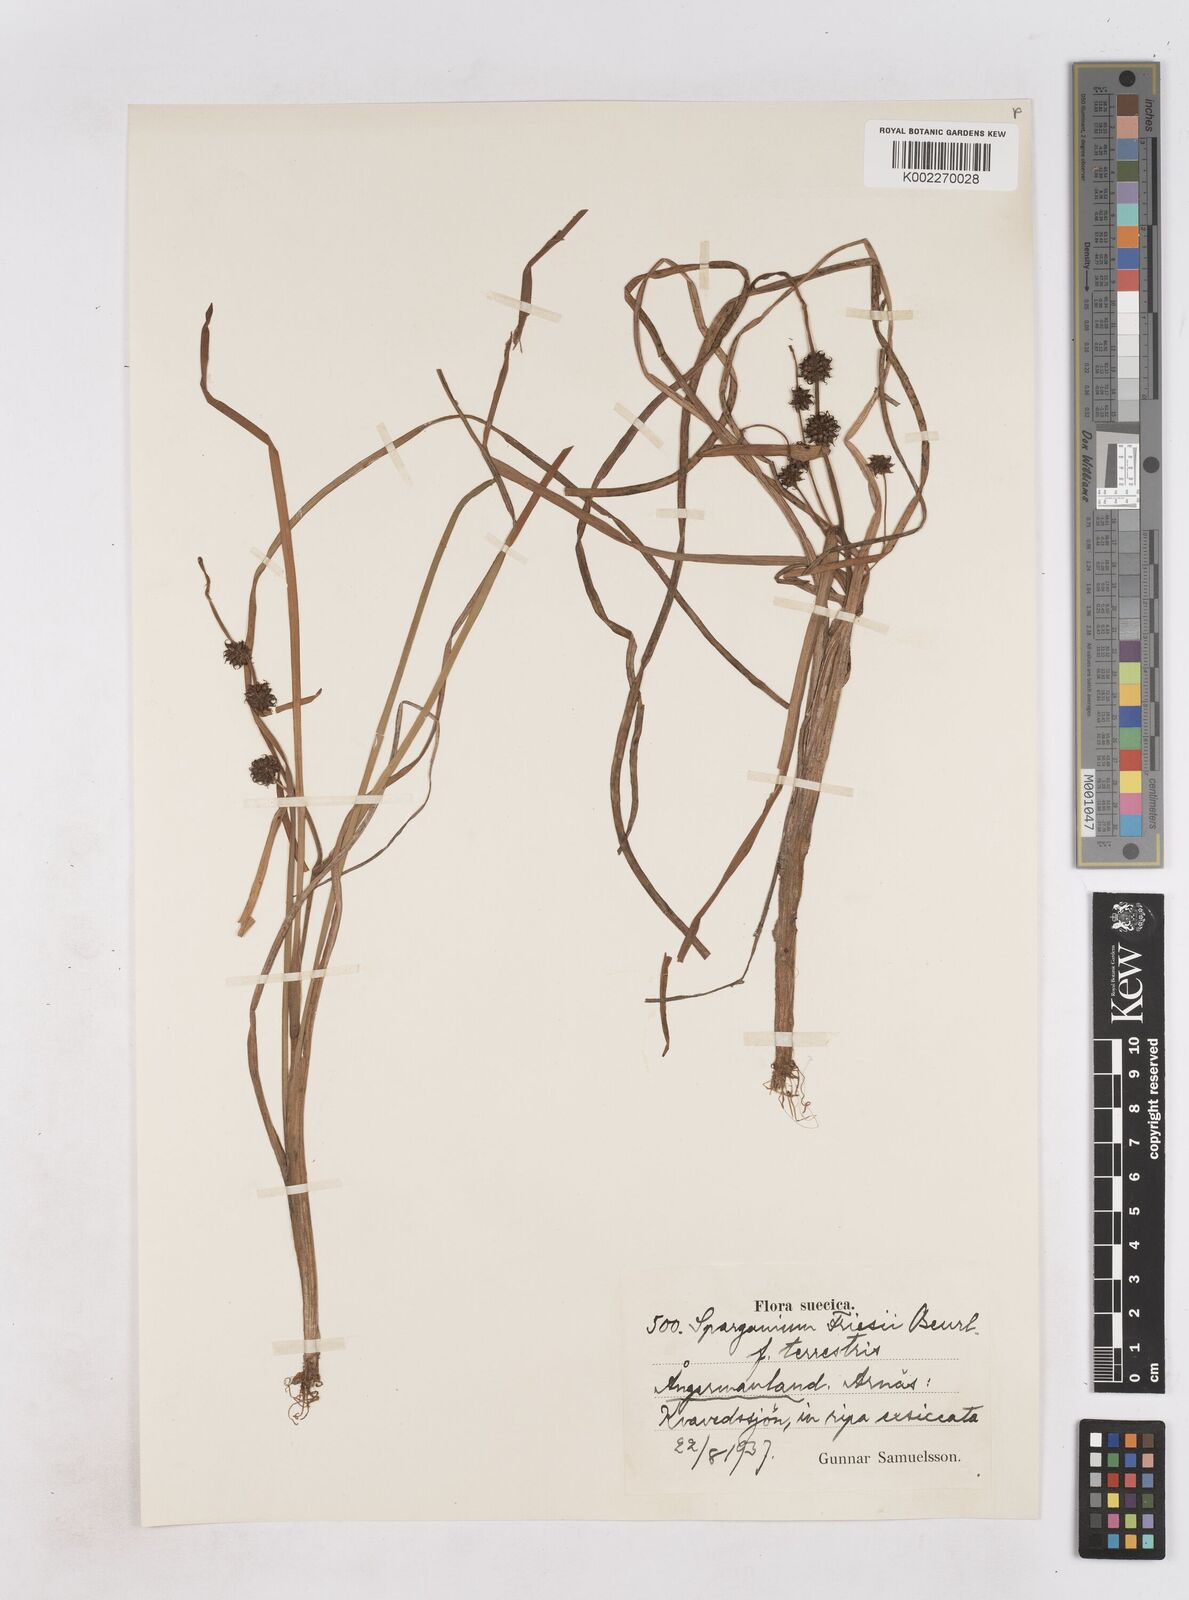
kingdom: Plantae
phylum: Tracheophyta
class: Liliopsida
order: Poales
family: Typhaceae
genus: Sparganium
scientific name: Sparganium gramineum
